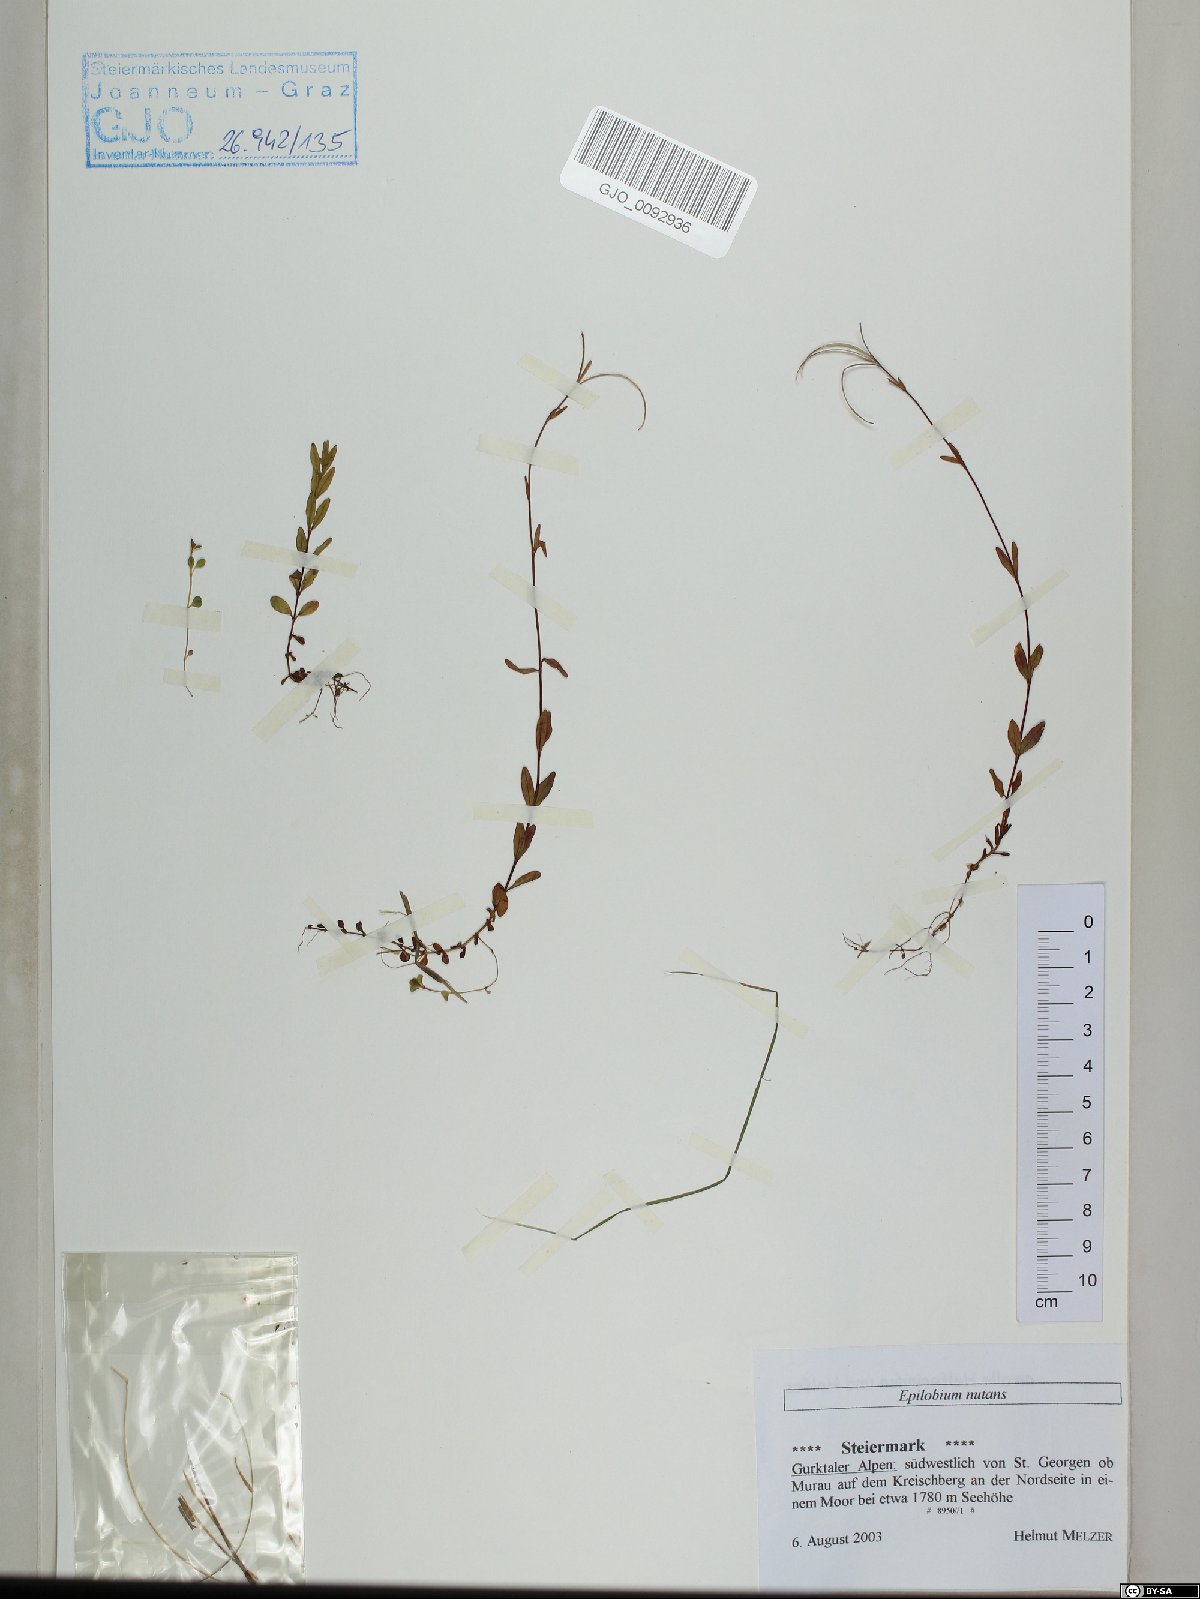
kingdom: Plantae
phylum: Tracheophyta
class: Magnoliopsida
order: Myrtales
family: Onagraceae
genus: Epilobium
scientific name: Epilobium nutans
